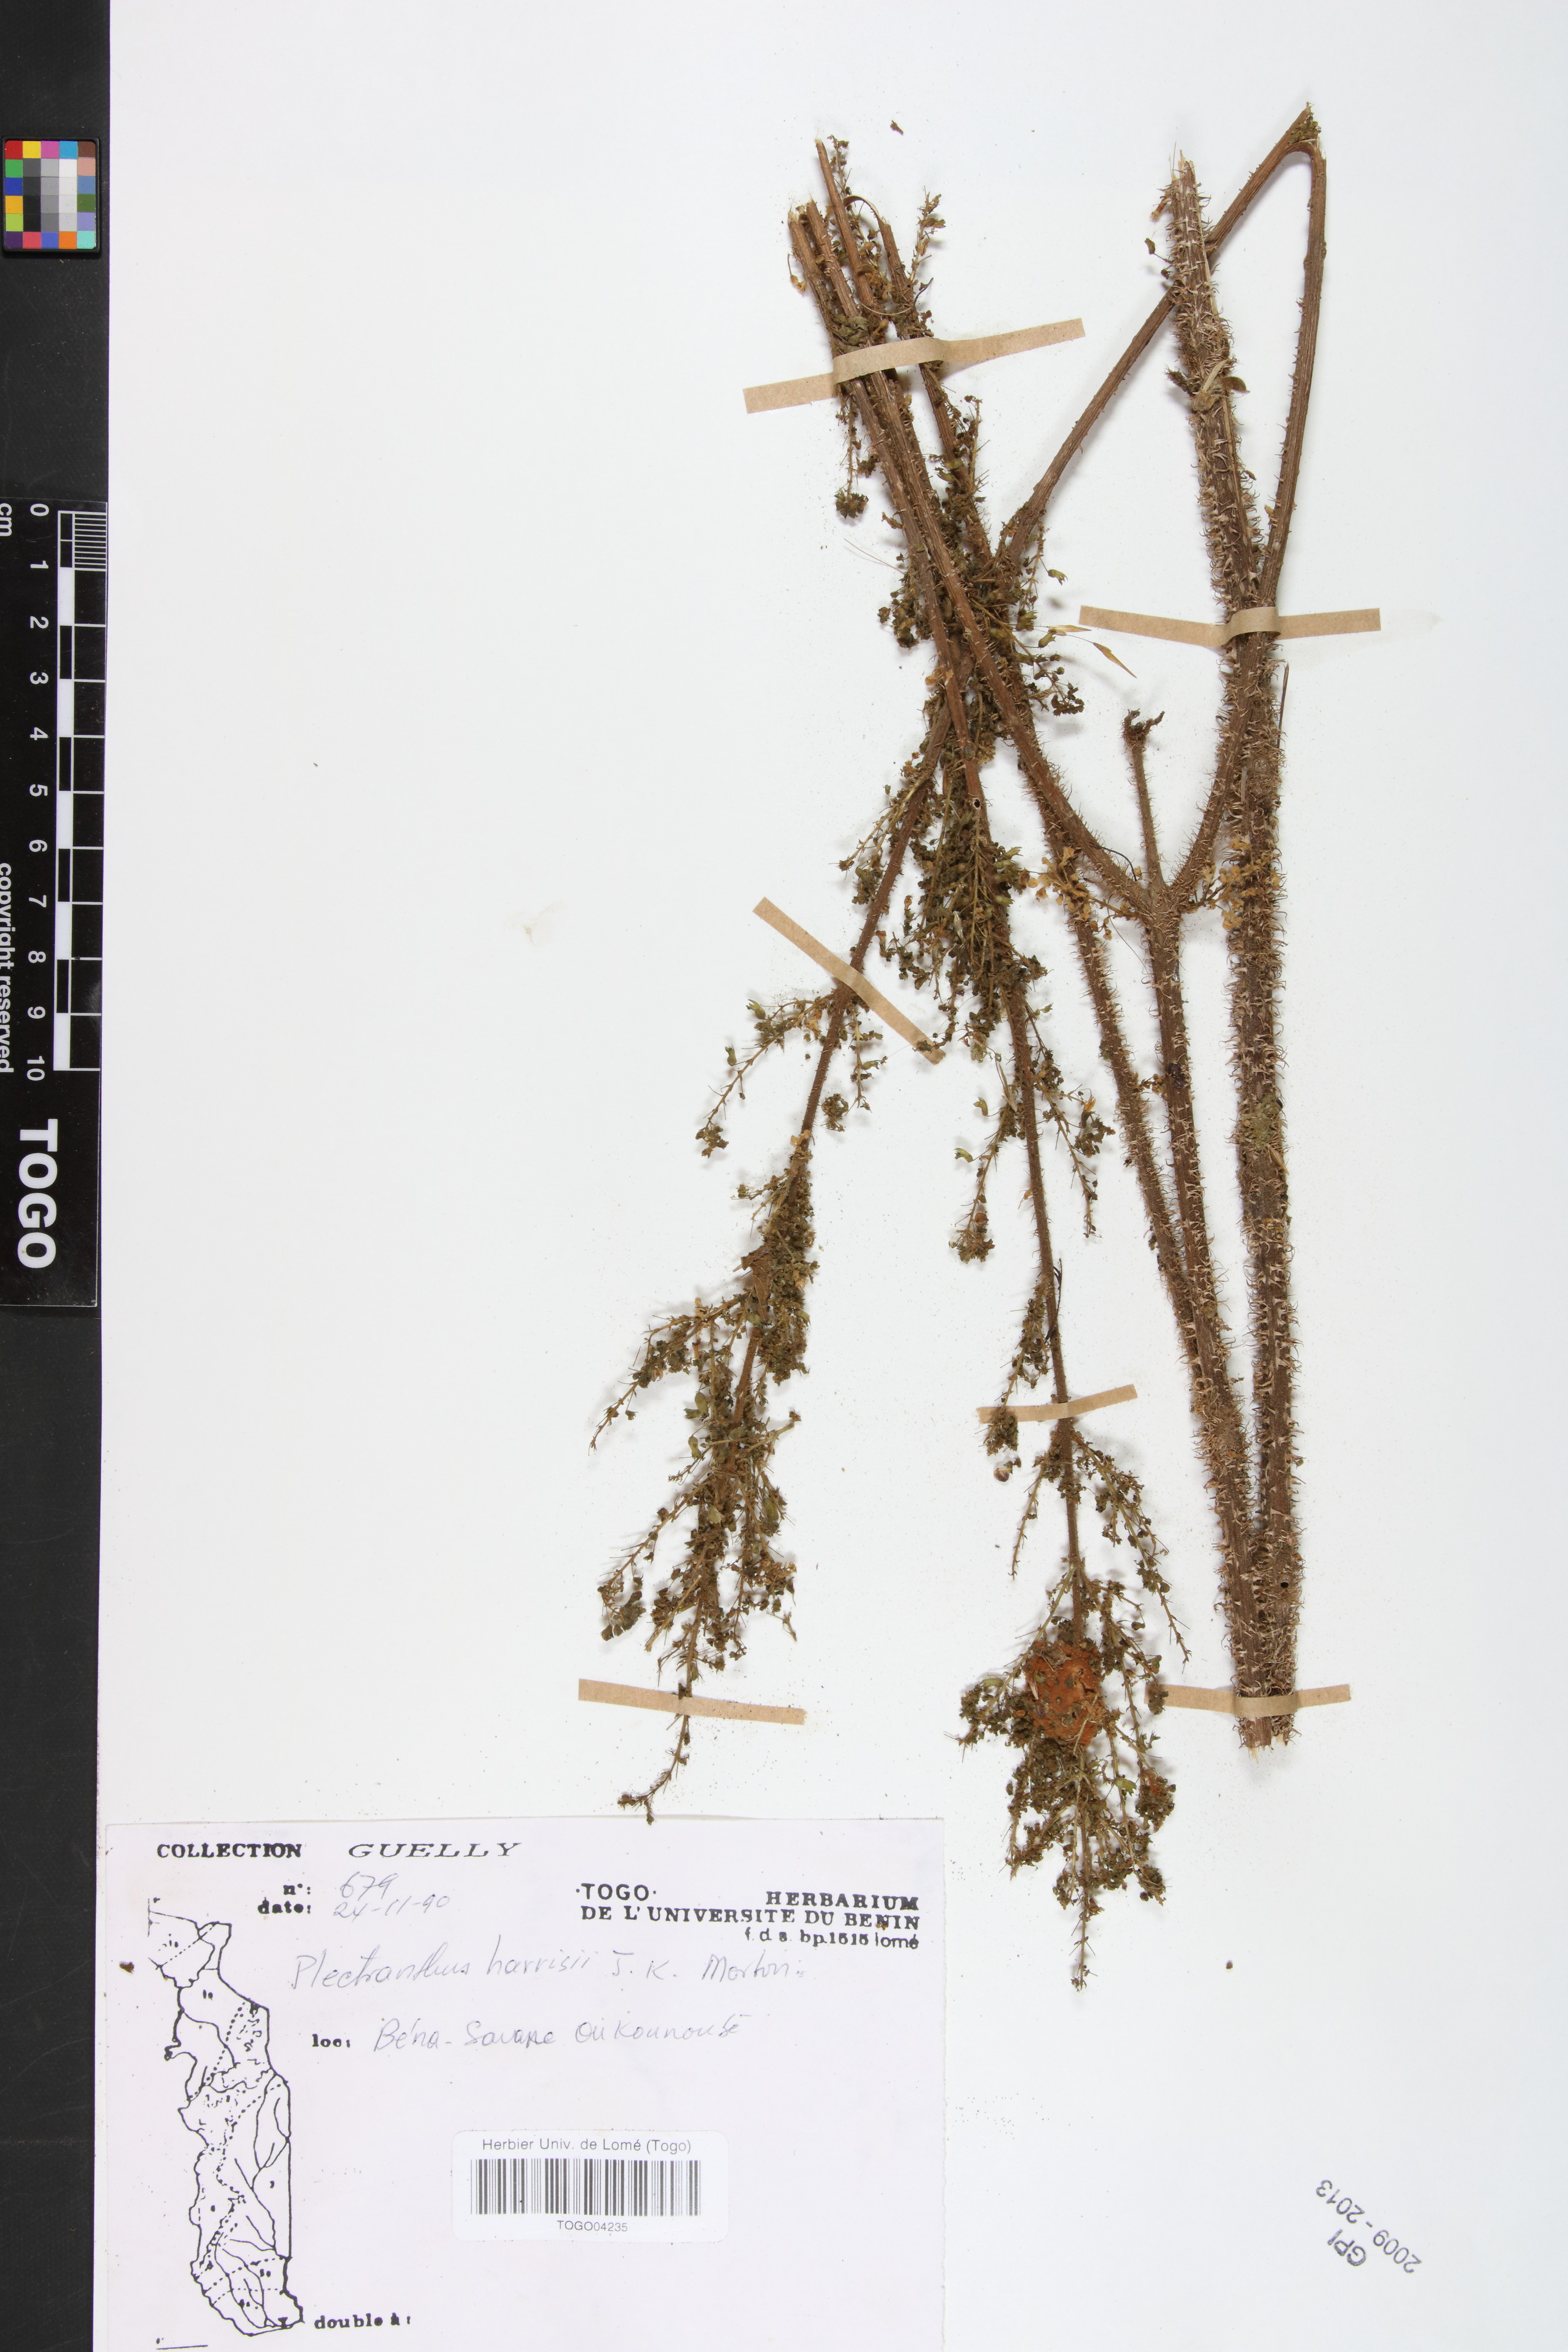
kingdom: Plantae
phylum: Tracheophyta
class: Magnoliopsida
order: Lamiales
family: Lamiaceae
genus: Coleus
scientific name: Coleus conglomeratus
